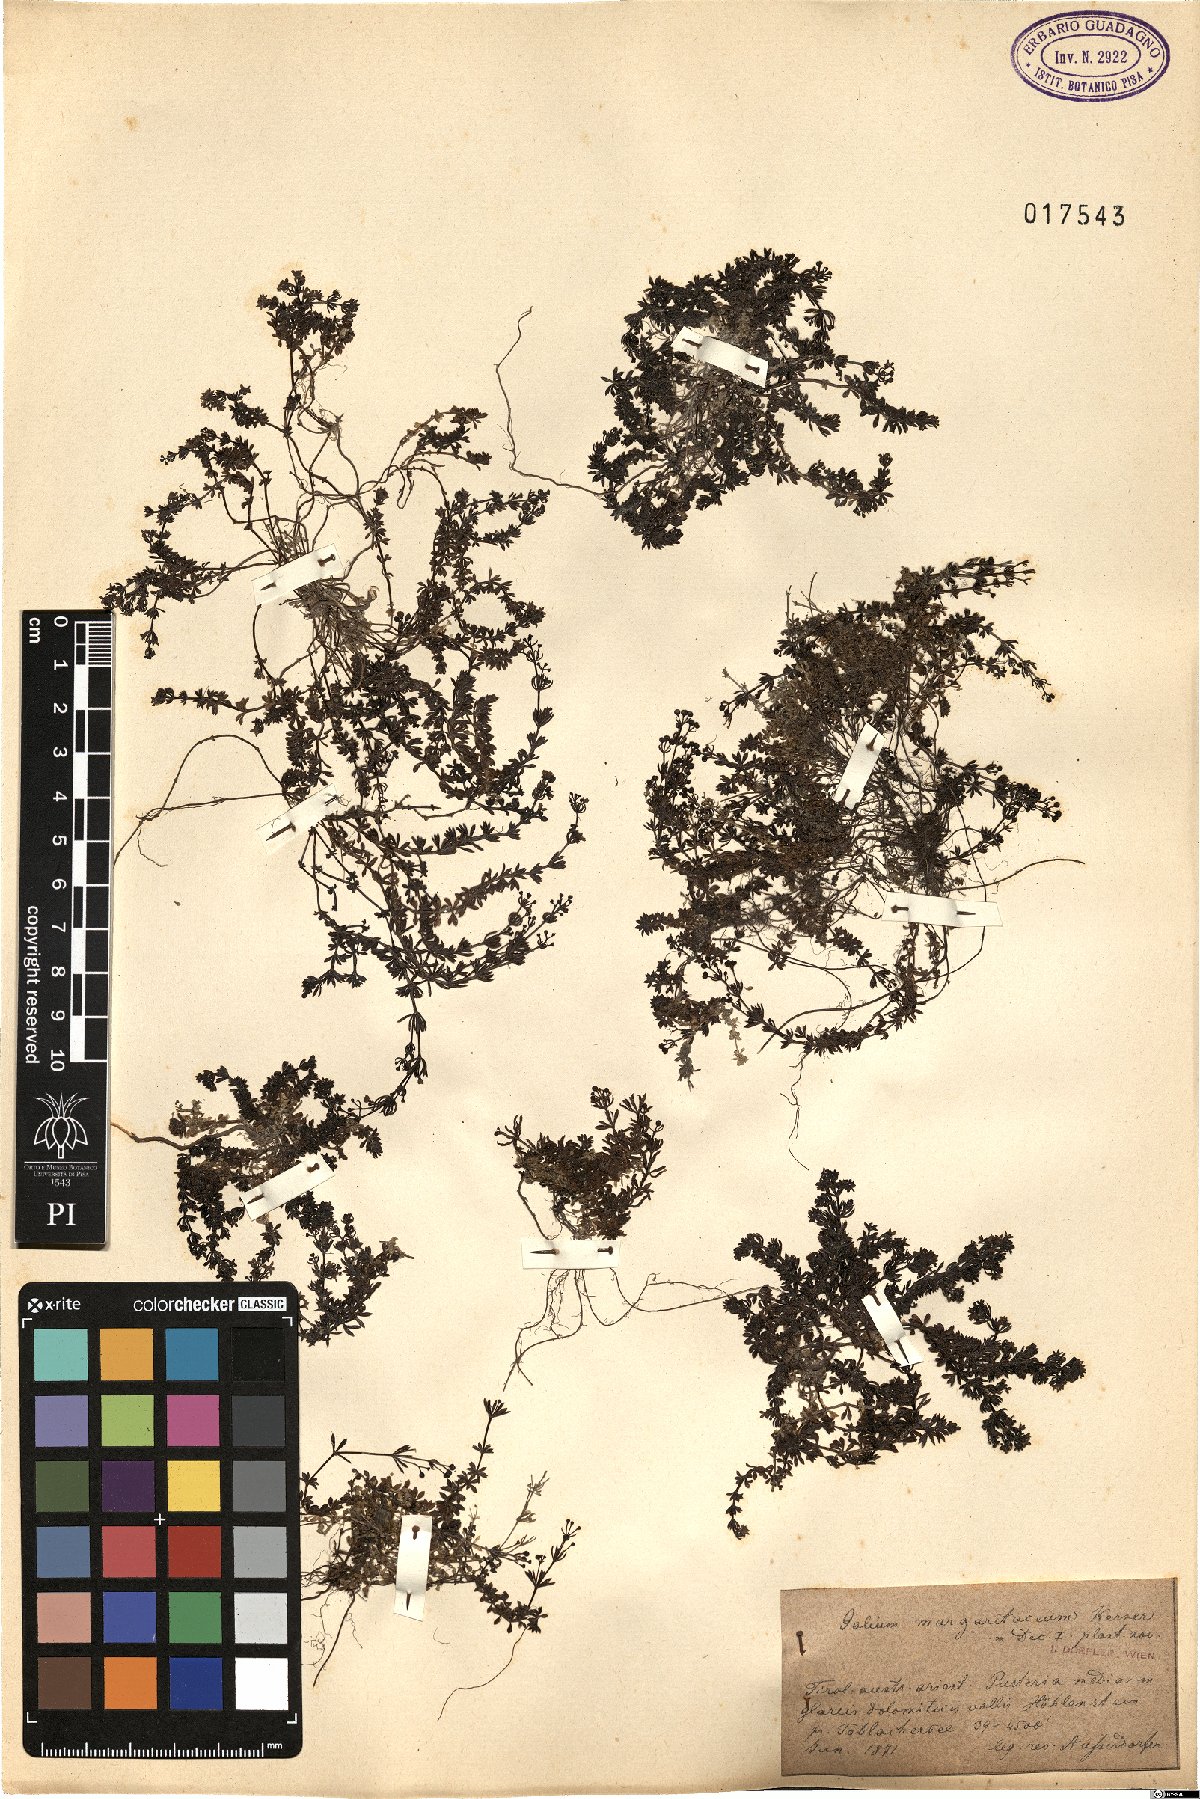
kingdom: Plantae
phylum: Tracheophyta
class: Magnoliopsida
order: Gentianales
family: Rubiaceae
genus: Galium
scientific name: Galium margaritaceum
